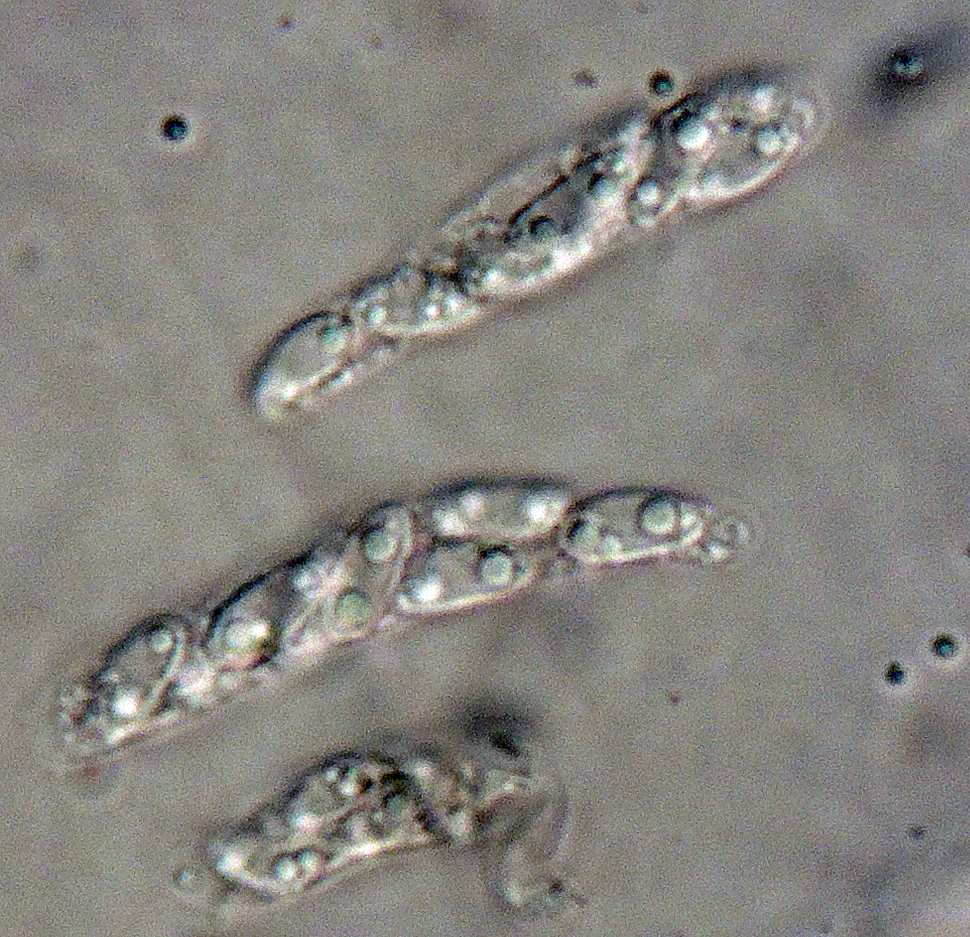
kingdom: Fungi
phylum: Ascomycota
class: Sordariomycetes
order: Glomerellales
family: Glomerellaceae
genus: Colletotrichum
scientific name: Colletotrichum gloeosporioides
